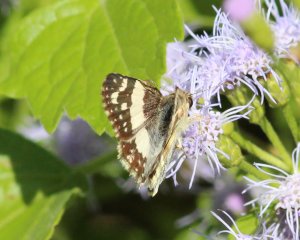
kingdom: Animalia
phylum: Arthropoda
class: Insecta
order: Lepidoptera
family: Hesperiidae
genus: Heliopyrgus
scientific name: Heliopyrgus domicella
